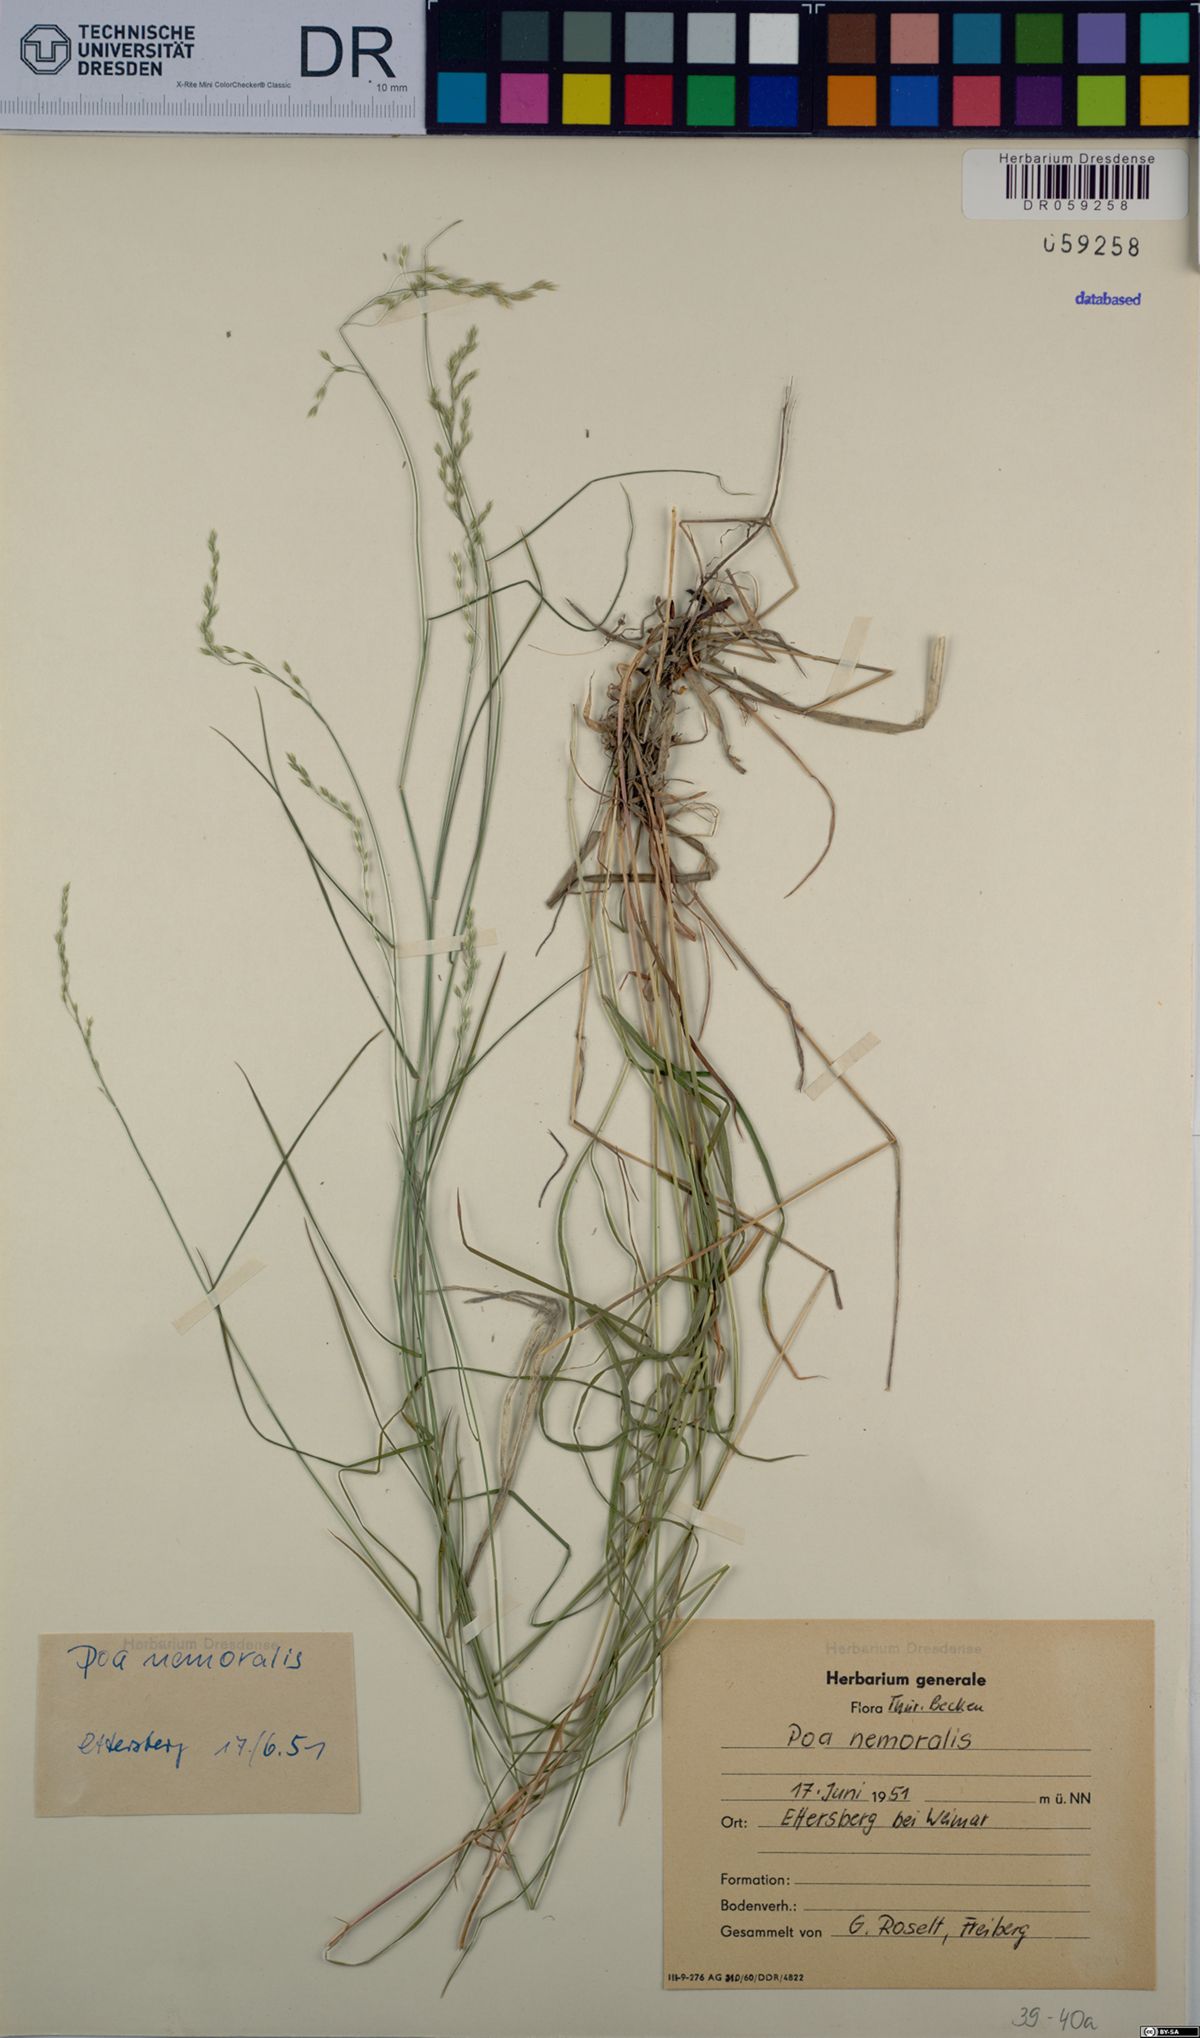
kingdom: Plantae
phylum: Tracheophyta
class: Liliopsida
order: Poales
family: Poaceae
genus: Poa
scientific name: Poa nemoralis
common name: Wood bluegrass
